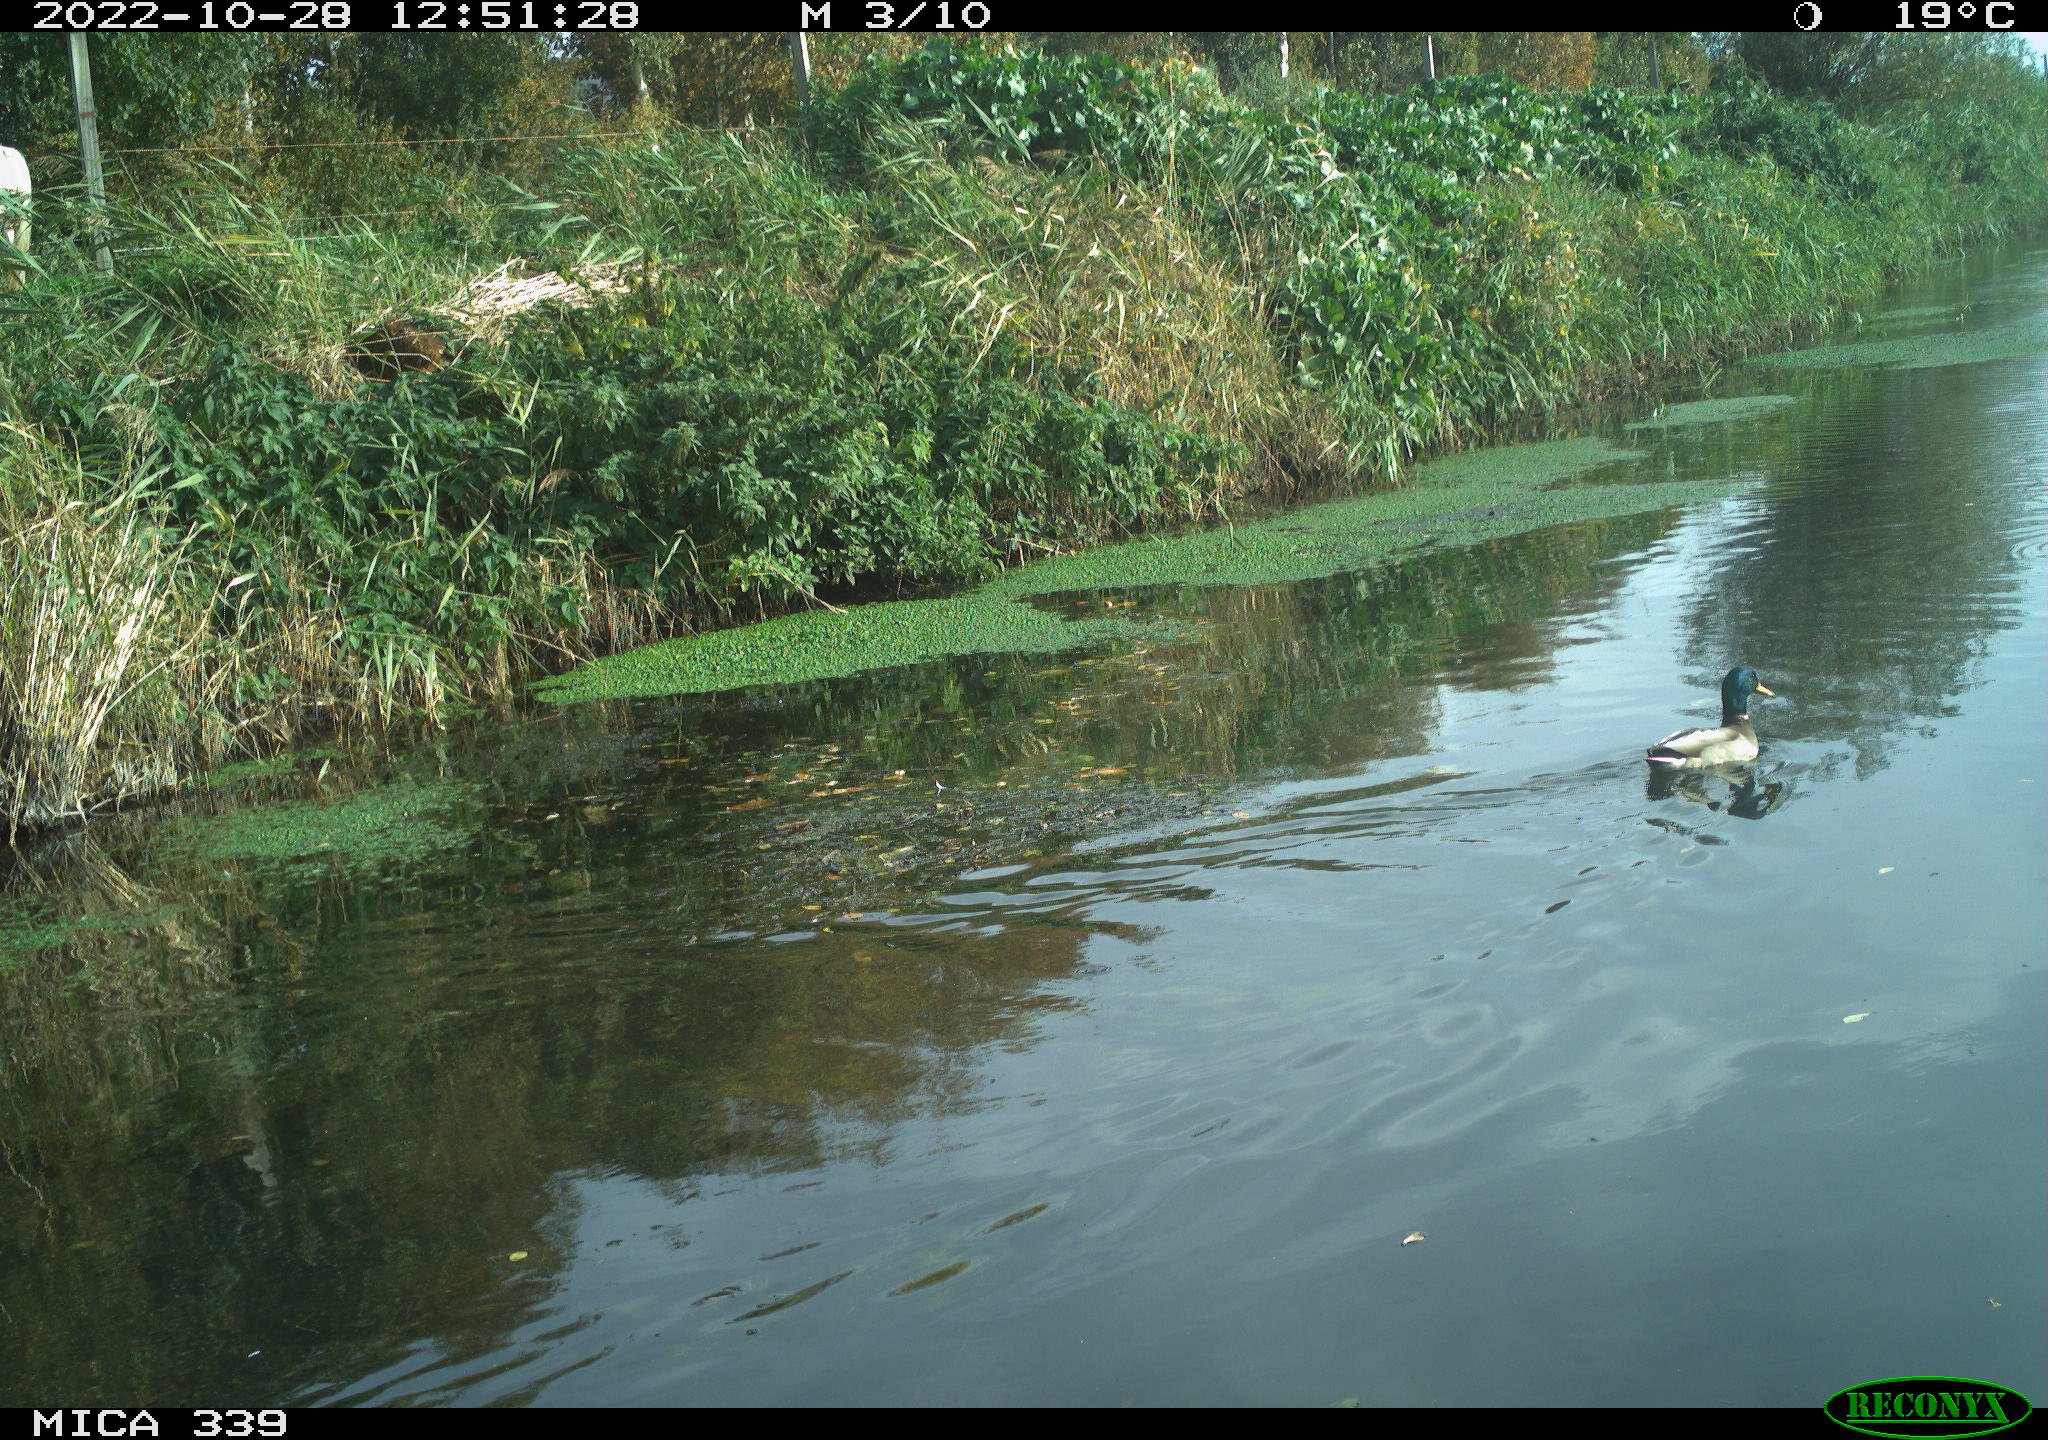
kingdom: Animalia
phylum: Chordata
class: Aves
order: Anseriformes
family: Anatidae
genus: Anas
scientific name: Anas platyrhynchos
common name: Mallard
